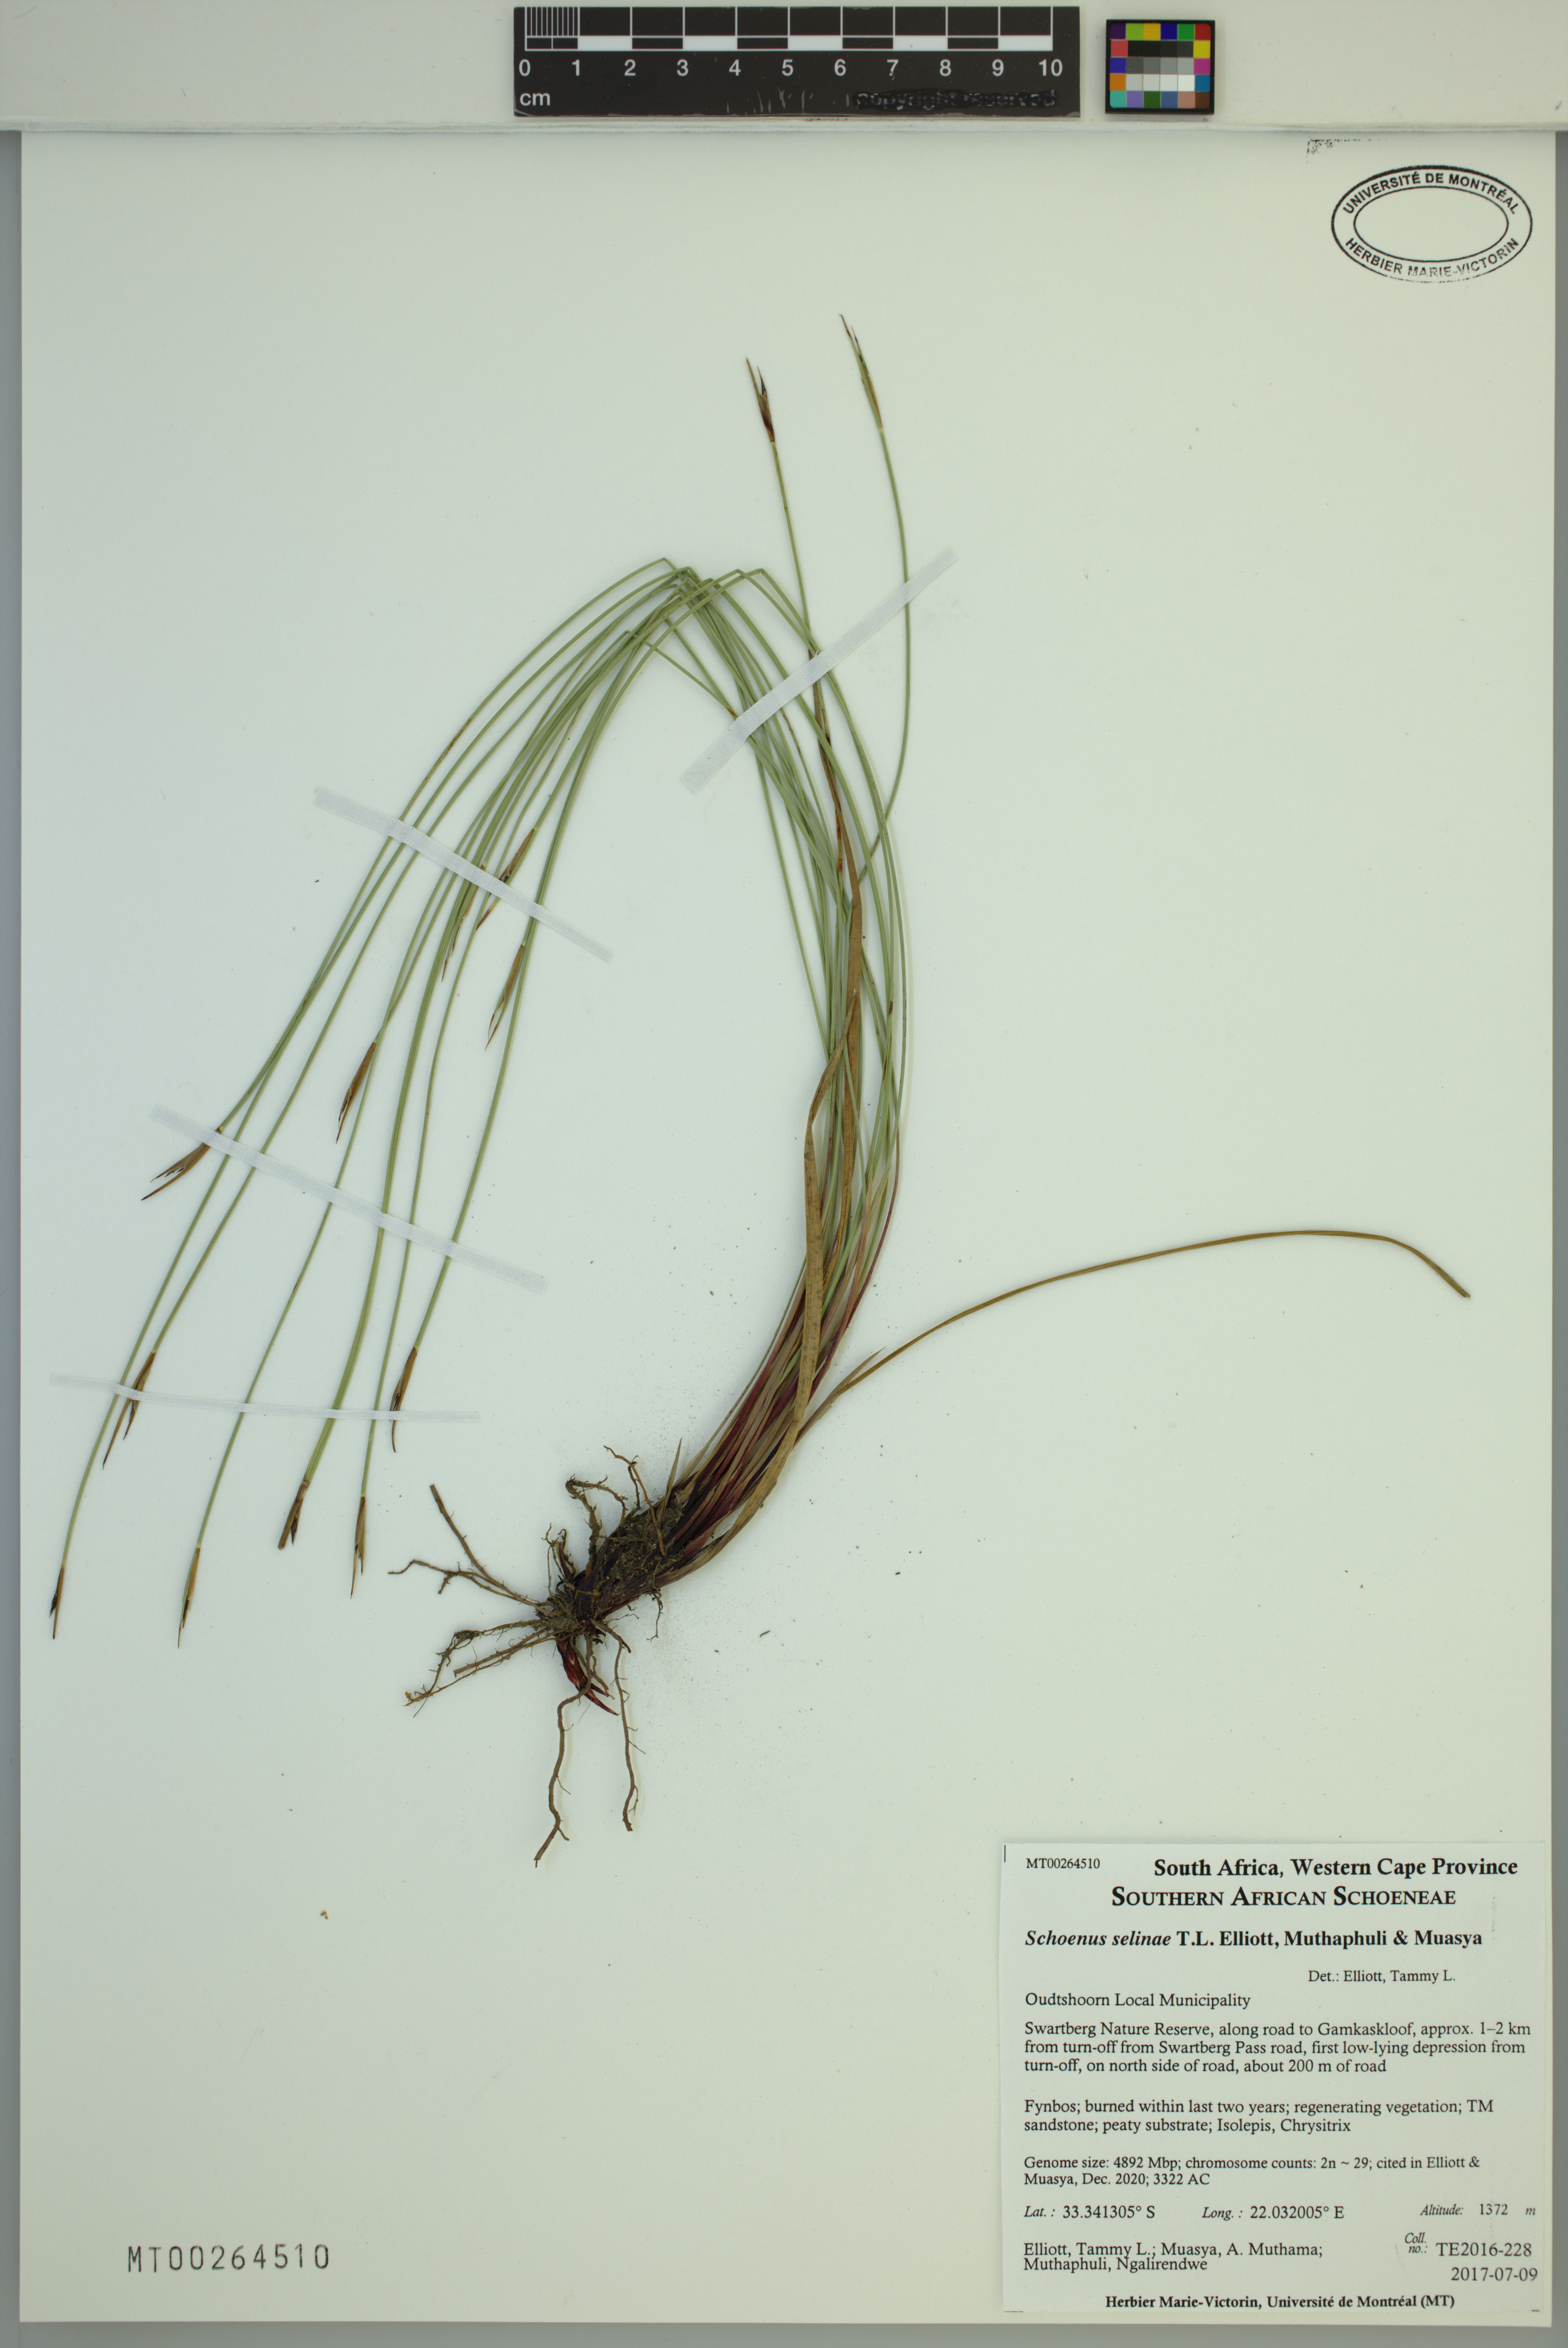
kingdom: Plantae
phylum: Tracheophyta
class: Liliopsida
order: Poales
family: Cyperaceae
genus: Schoenus
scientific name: Schoenus selinae
